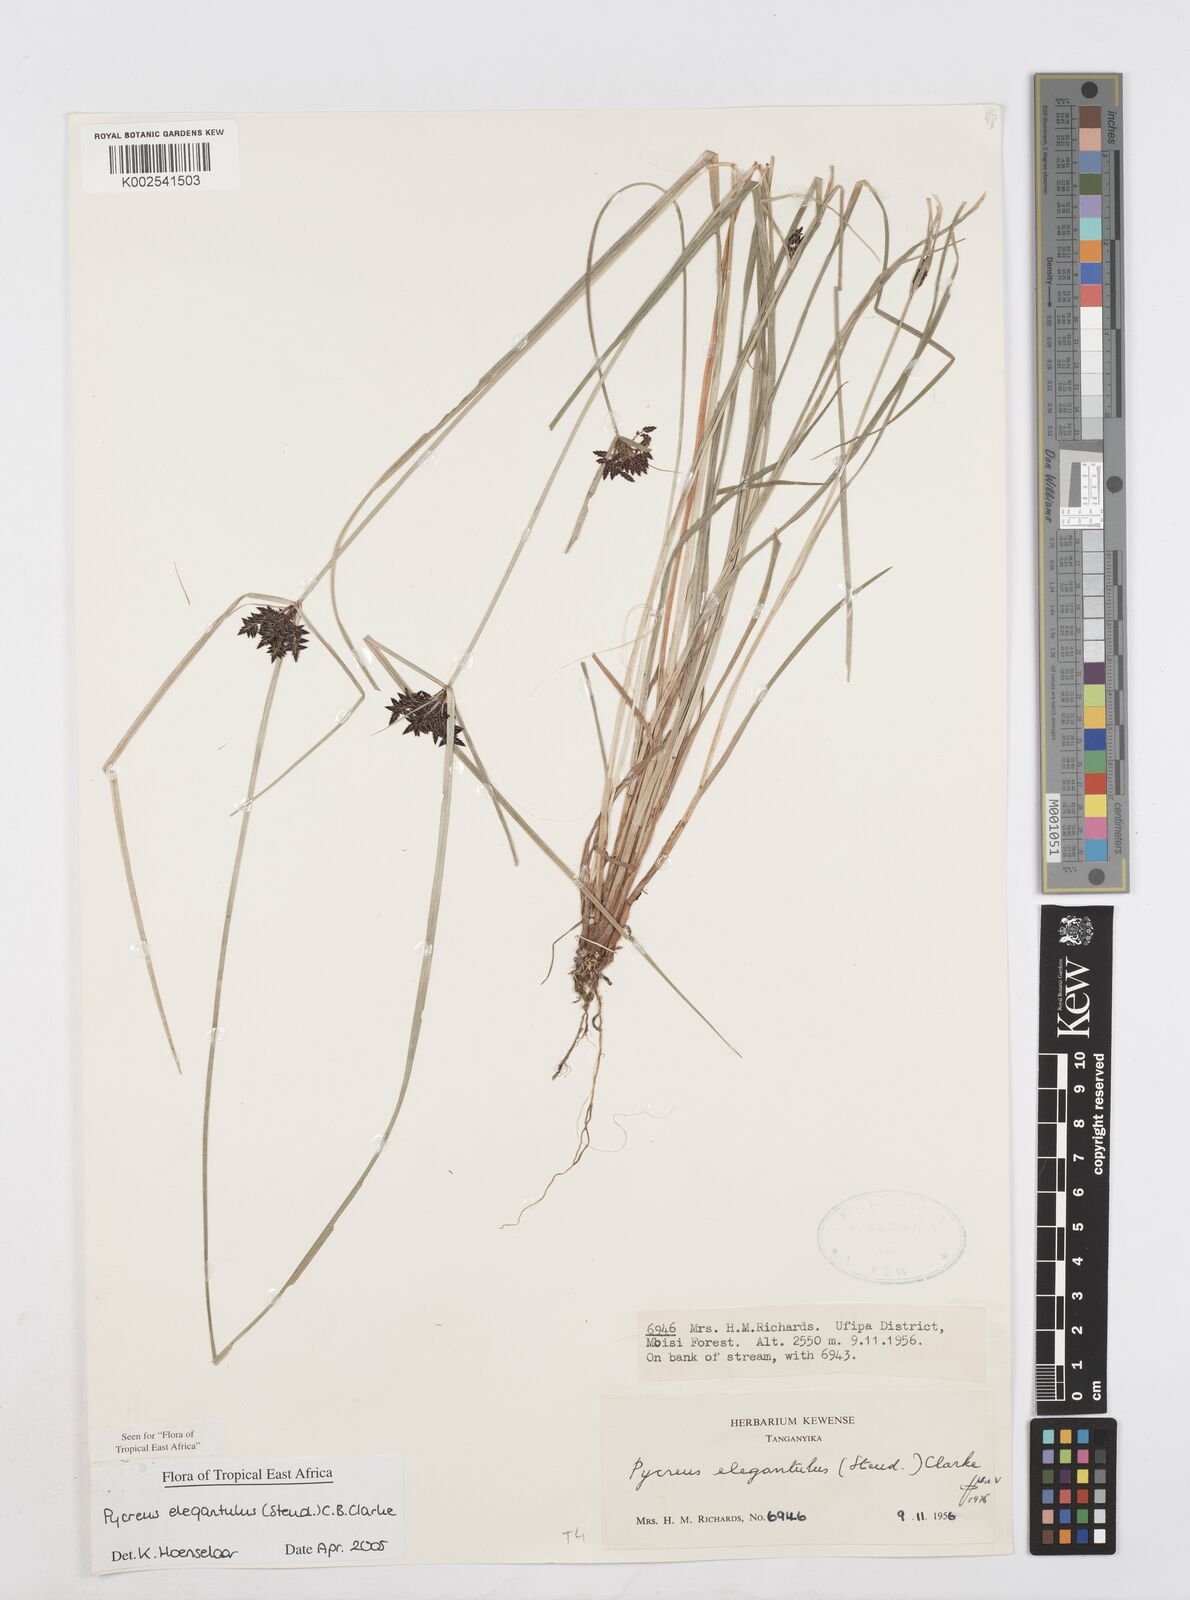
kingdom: Plantae
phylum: Tracheophyta
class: Liliopsida
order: Poales
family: Cyperaceae
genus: Cyperus
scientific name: Cyperus elegantulus
